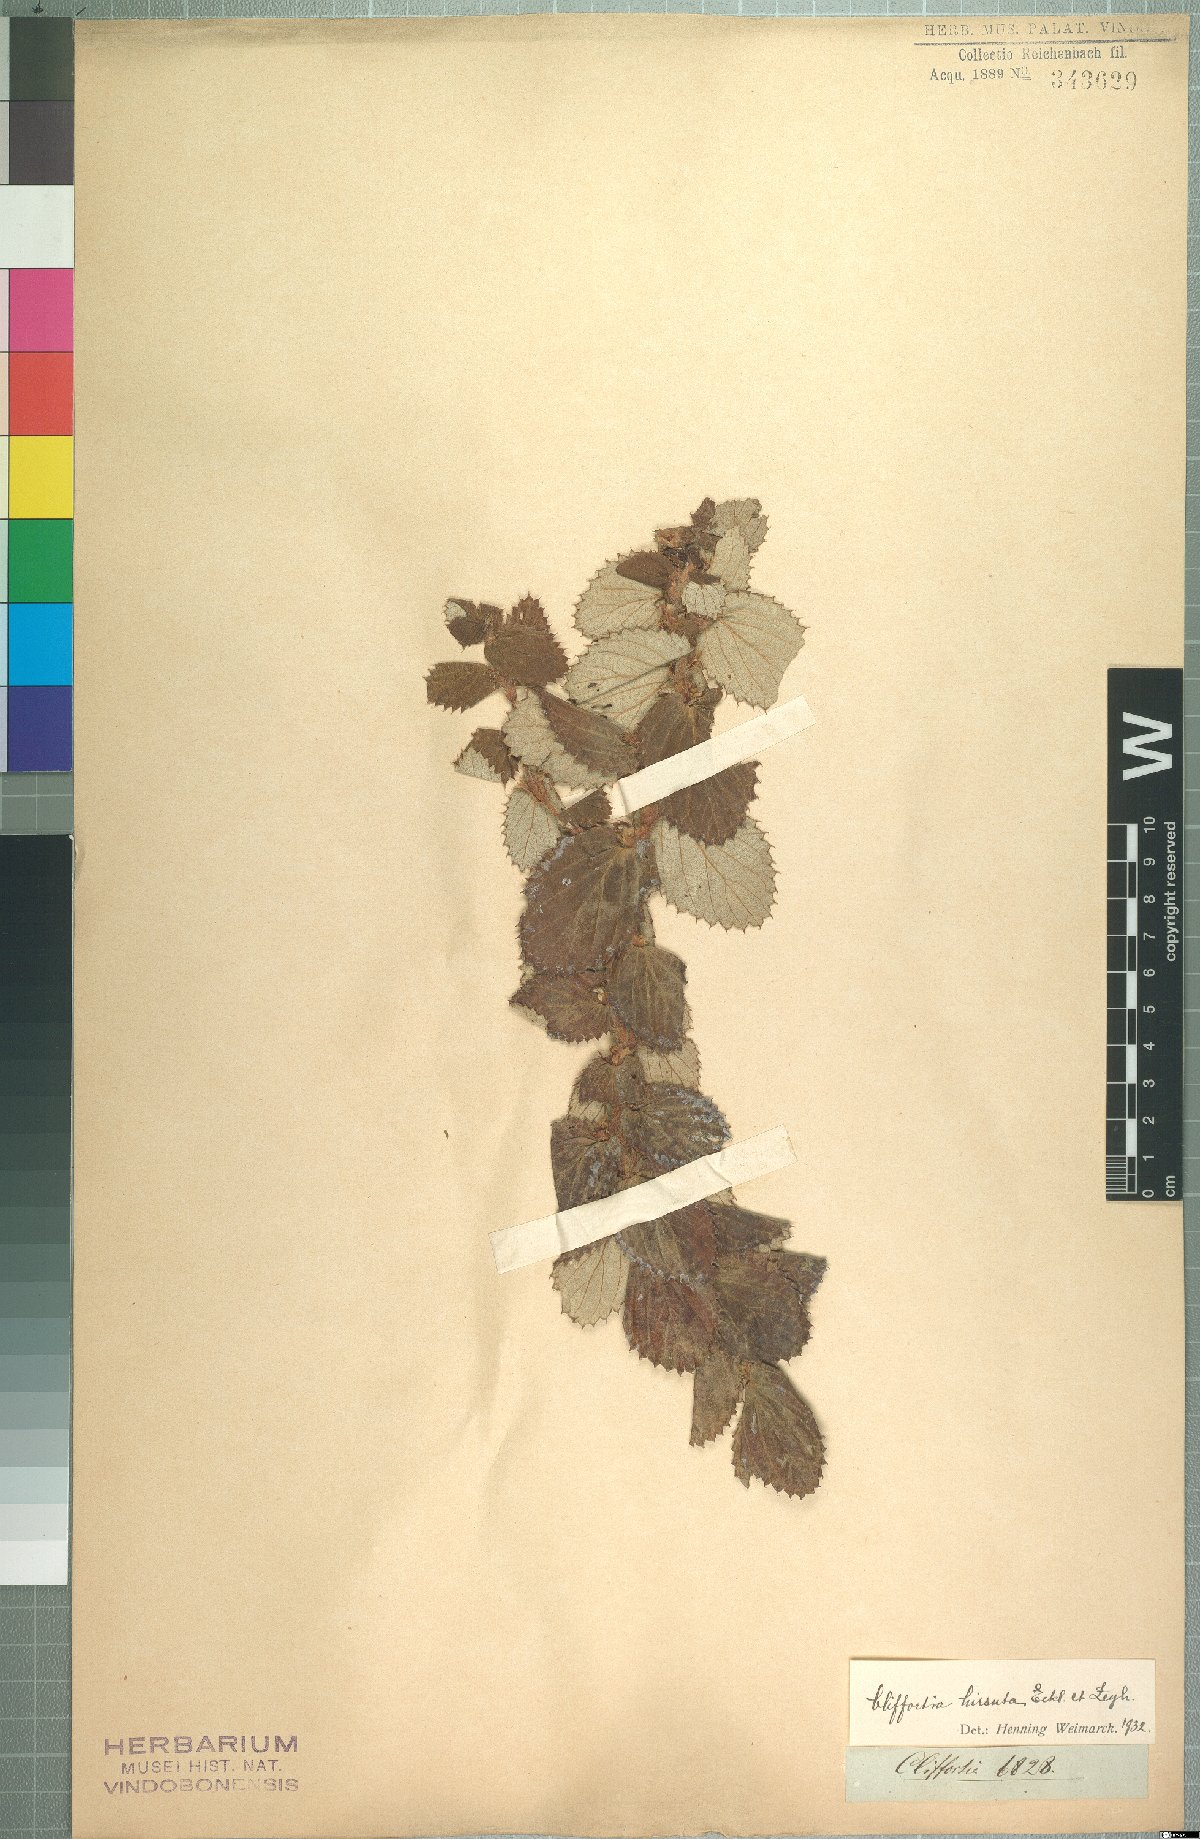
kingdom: Plantae
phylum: Tracheophyta
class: Magnoliopsida
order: Rosales
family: Rosaceae
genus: Cliffortia
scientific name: Cliffortia hirsuta
